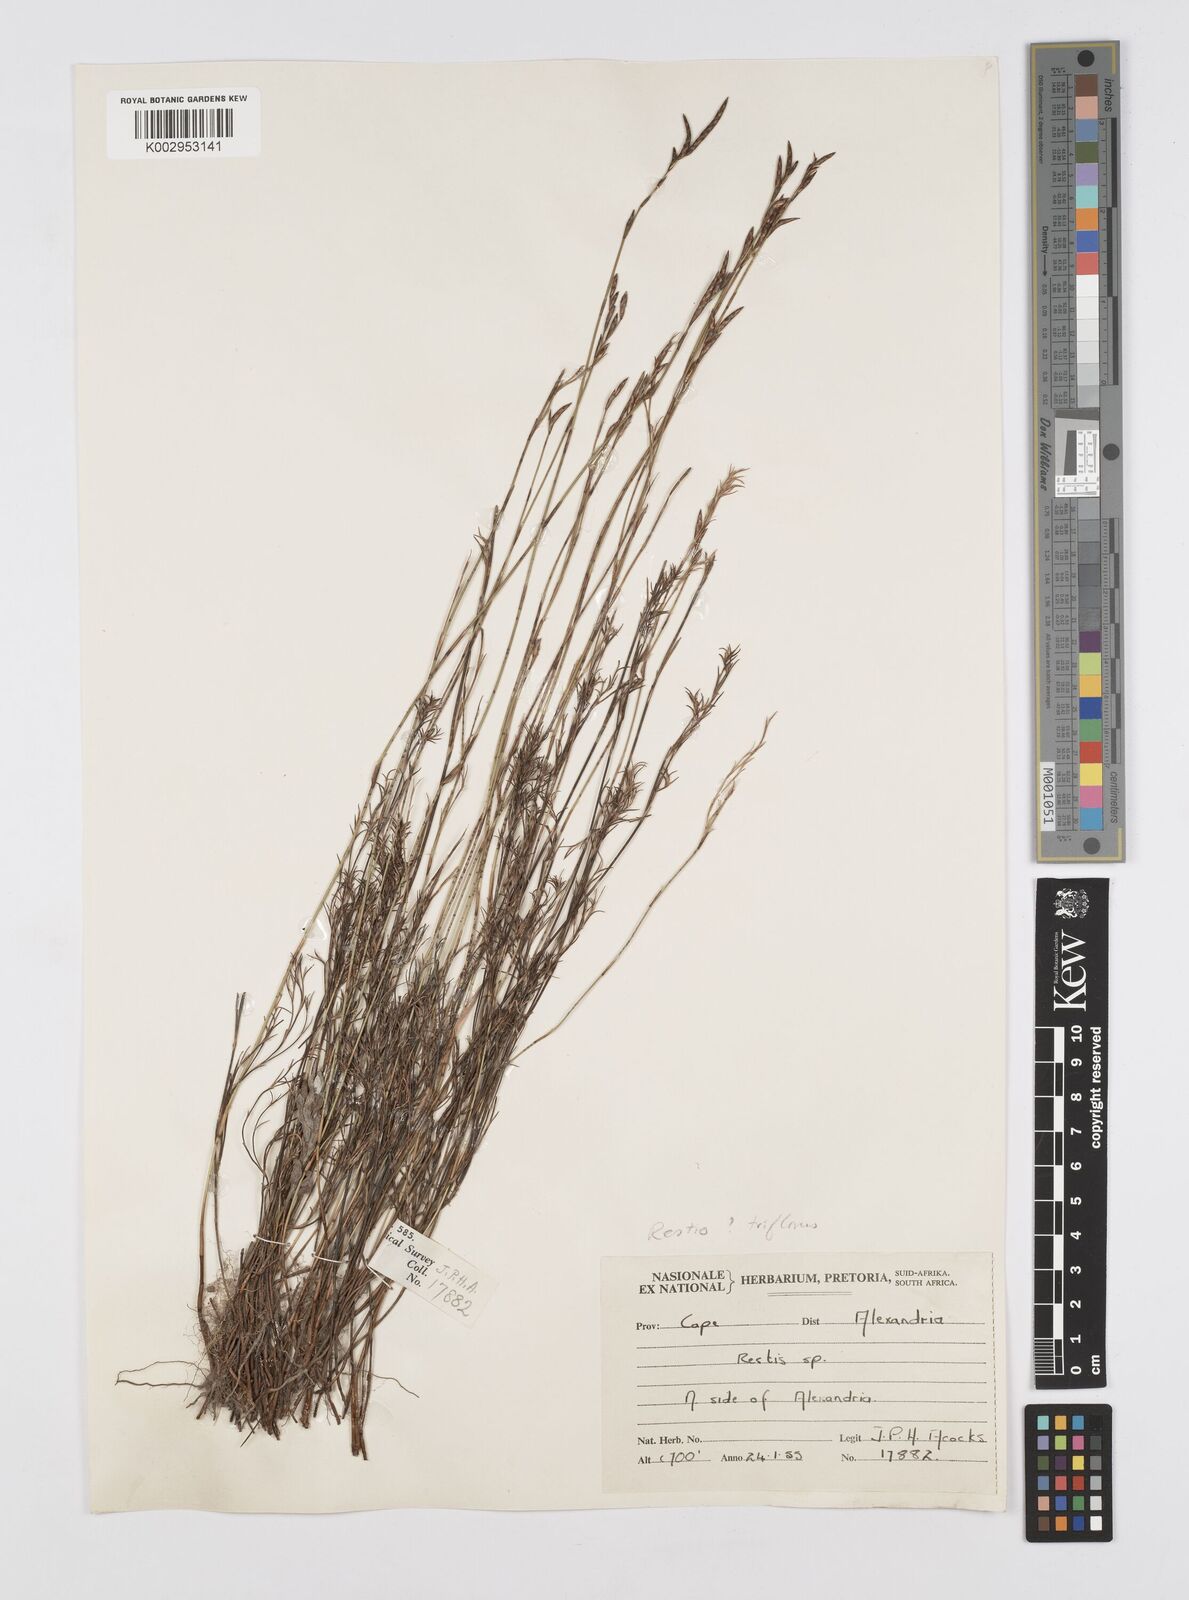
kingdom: Plantae
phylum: Tracheophyta
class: Liliopsida
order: Poales
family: Restionaceae
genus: Restio
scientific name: Restio triflorus
